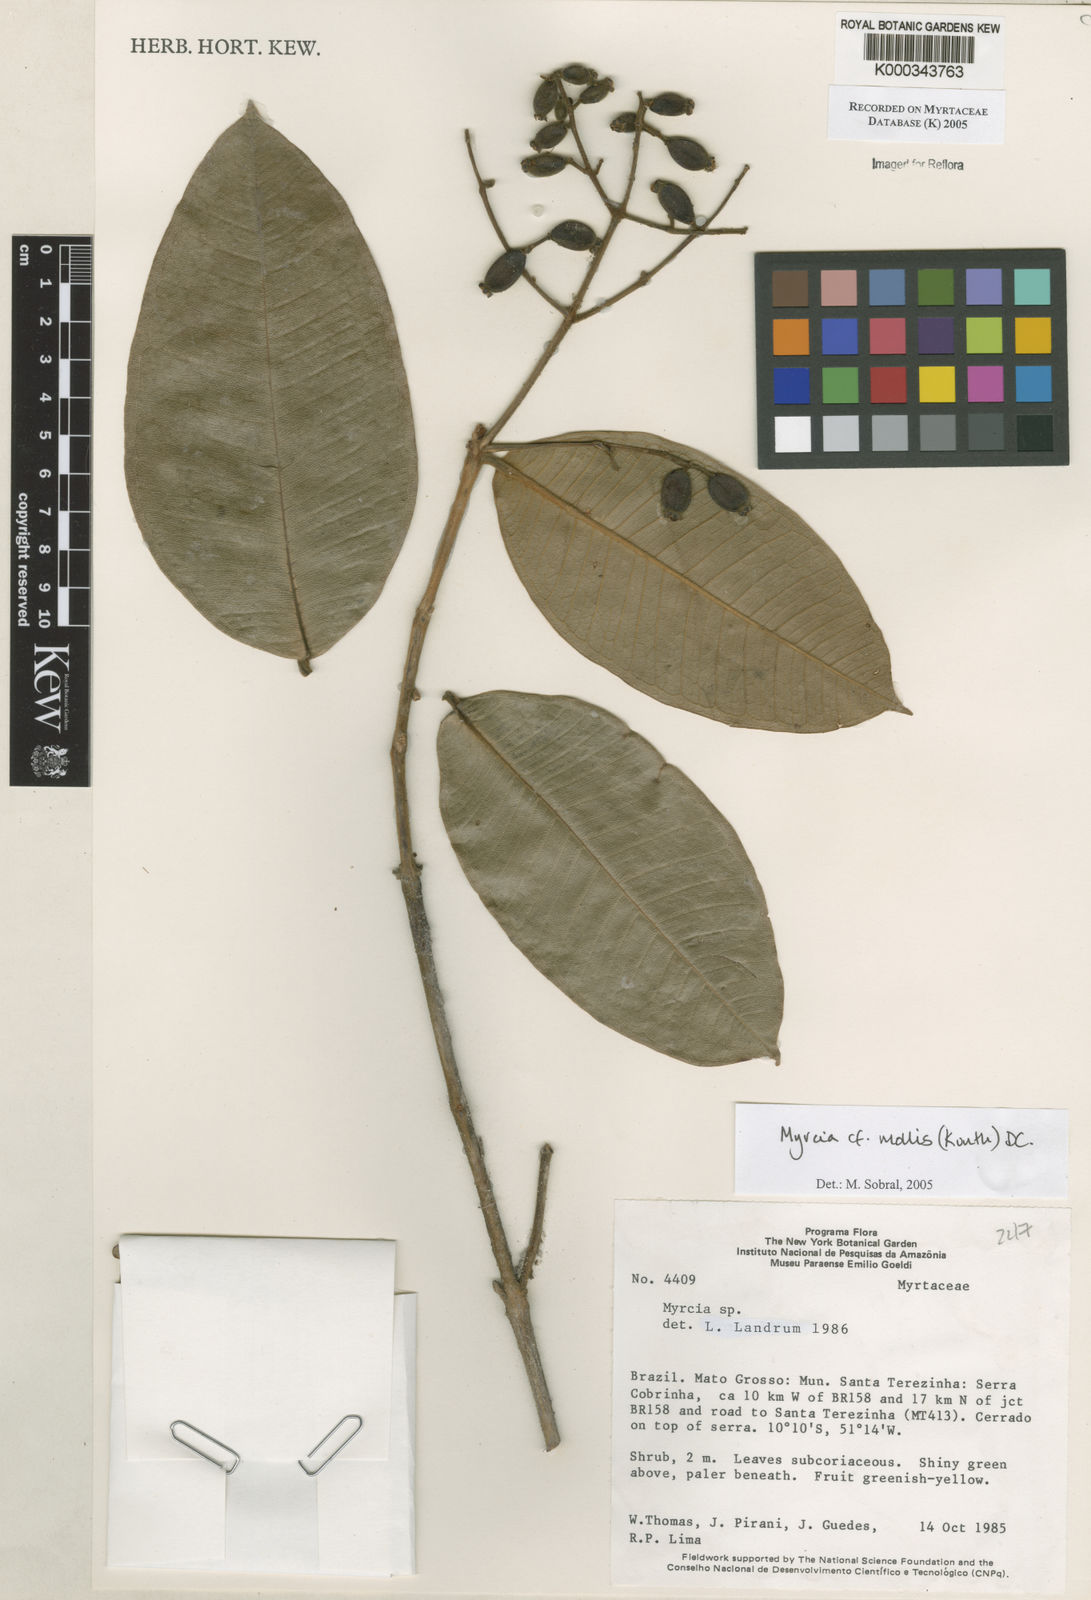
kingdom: Plantae
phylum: Tracheophyta
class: Magnoliopsida
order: Myrtales
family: Myrtaceae
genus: Myrcia
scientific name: Myrcia mollis
